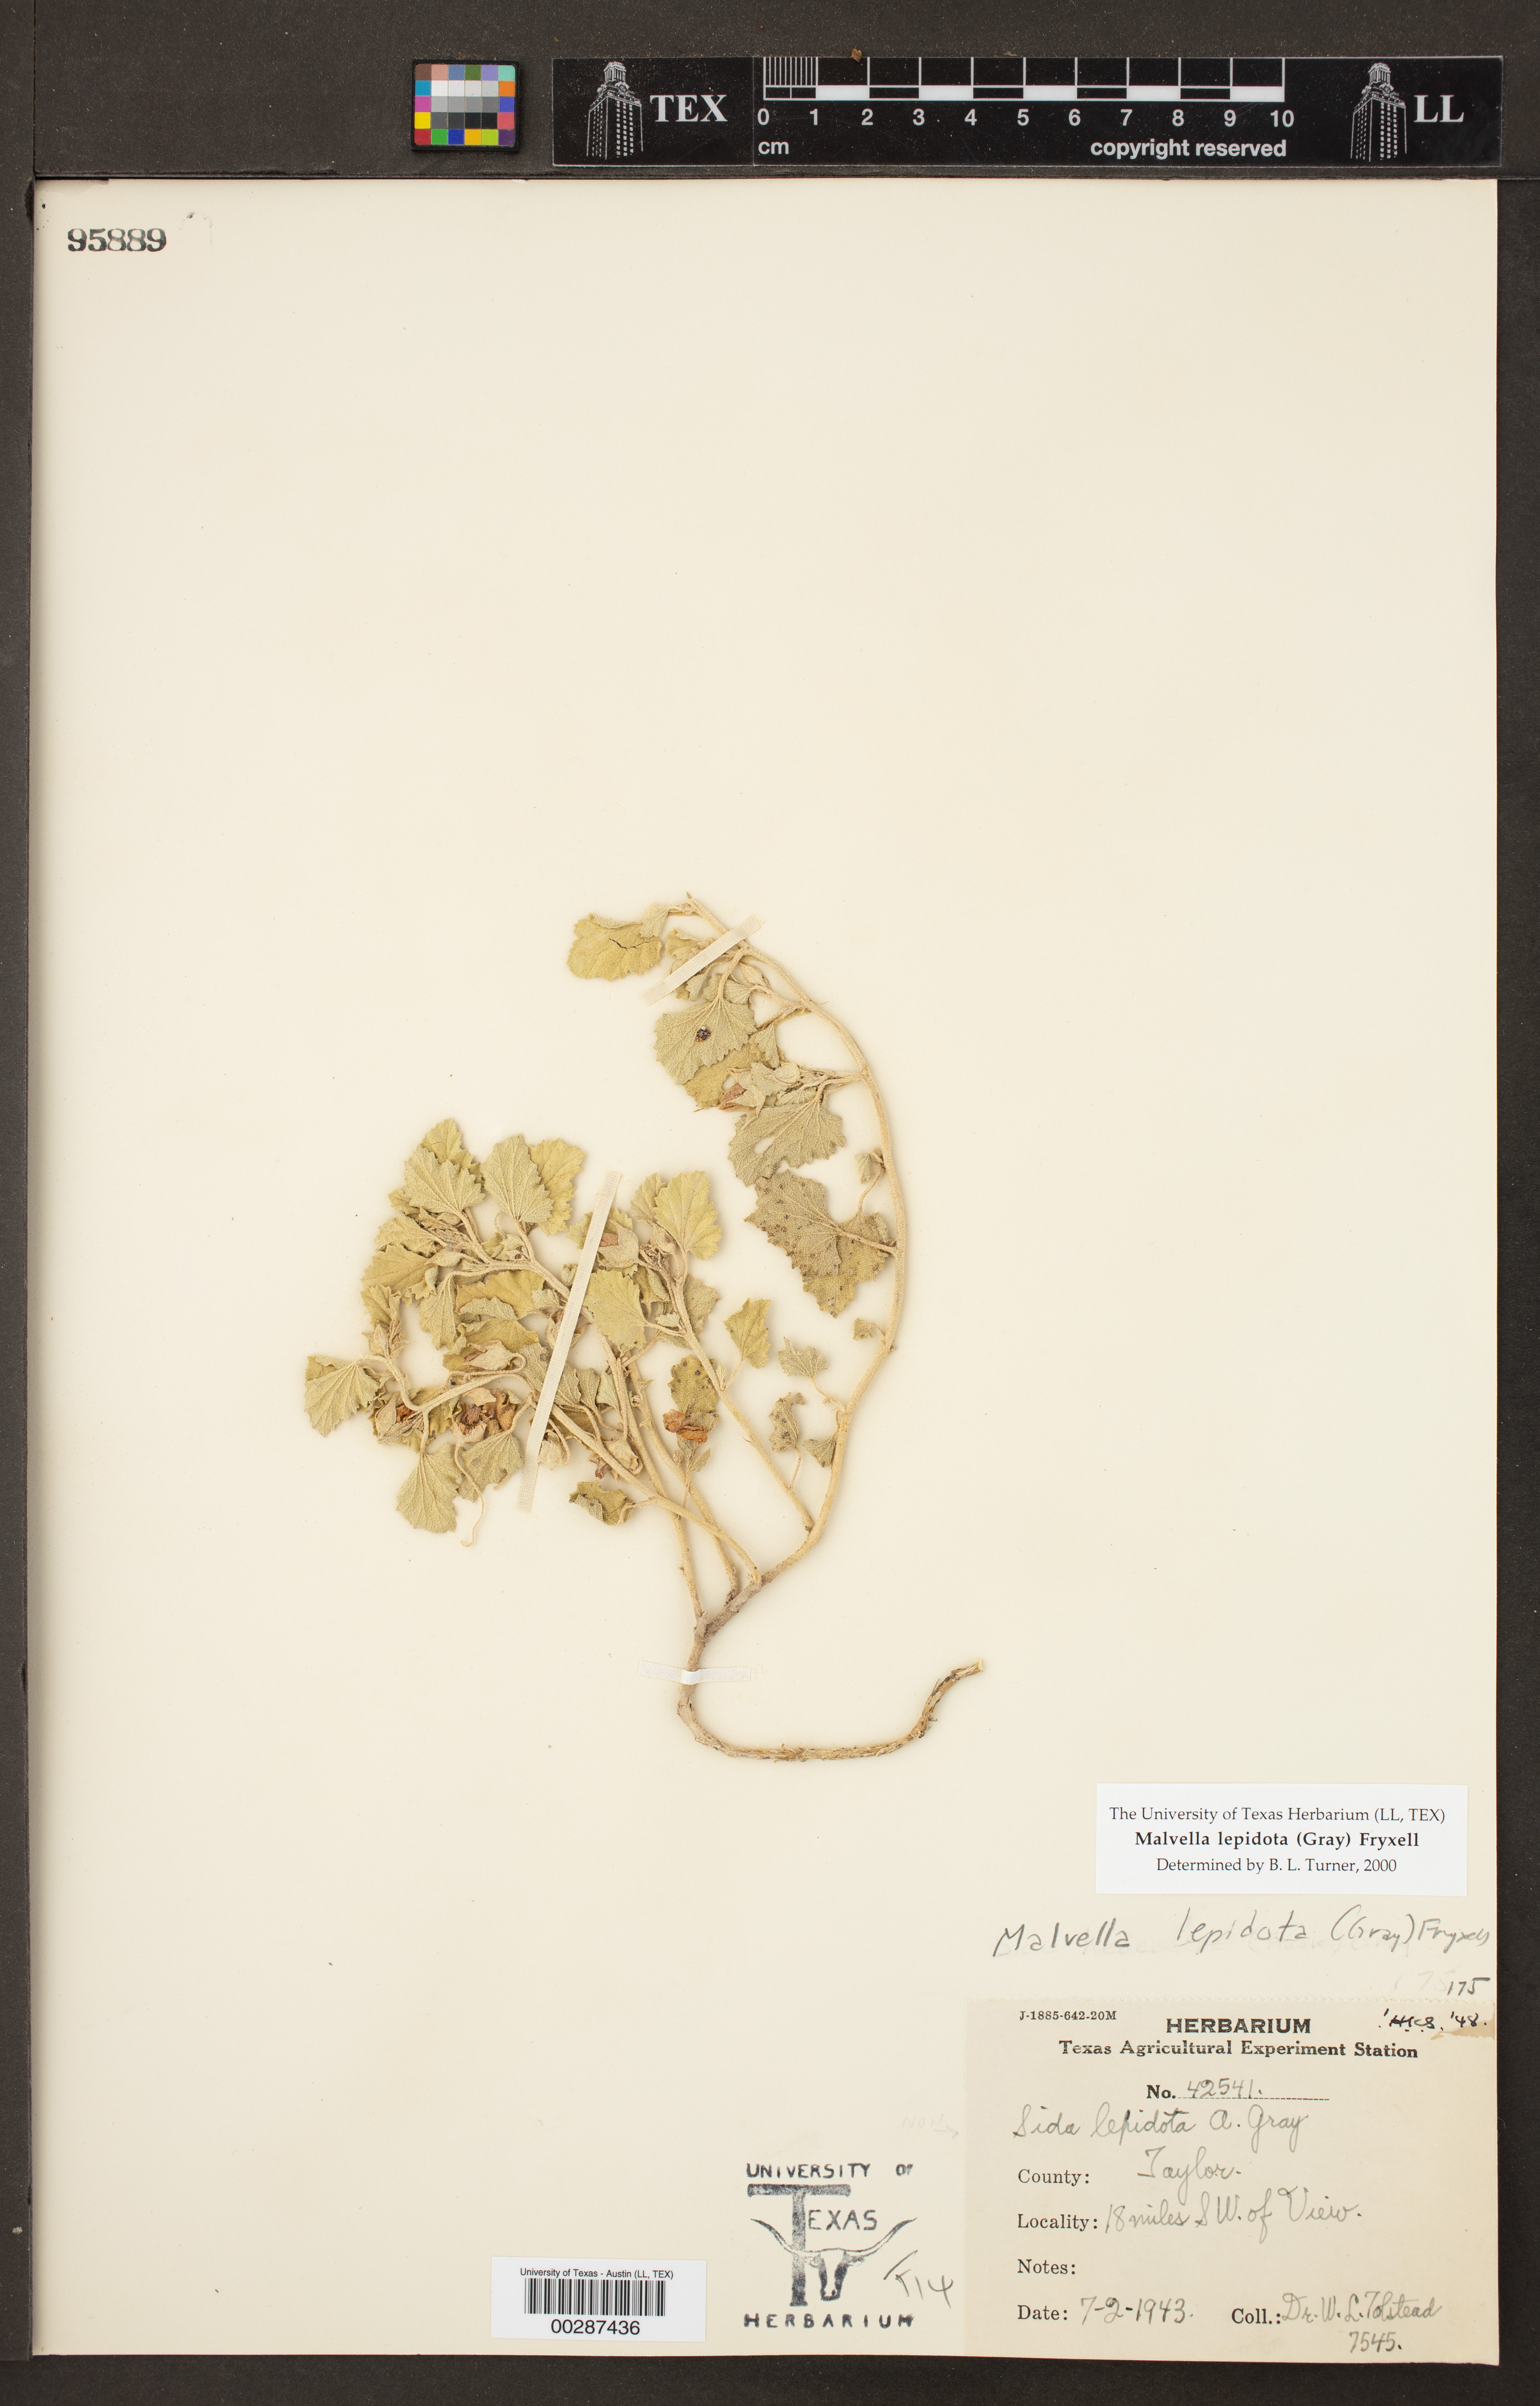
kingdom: Plantae
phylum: Tracheophyta
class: Magnoliopsida
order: Malvales
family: Malvaceae
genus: Malvella
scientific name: Malvella lepidota
